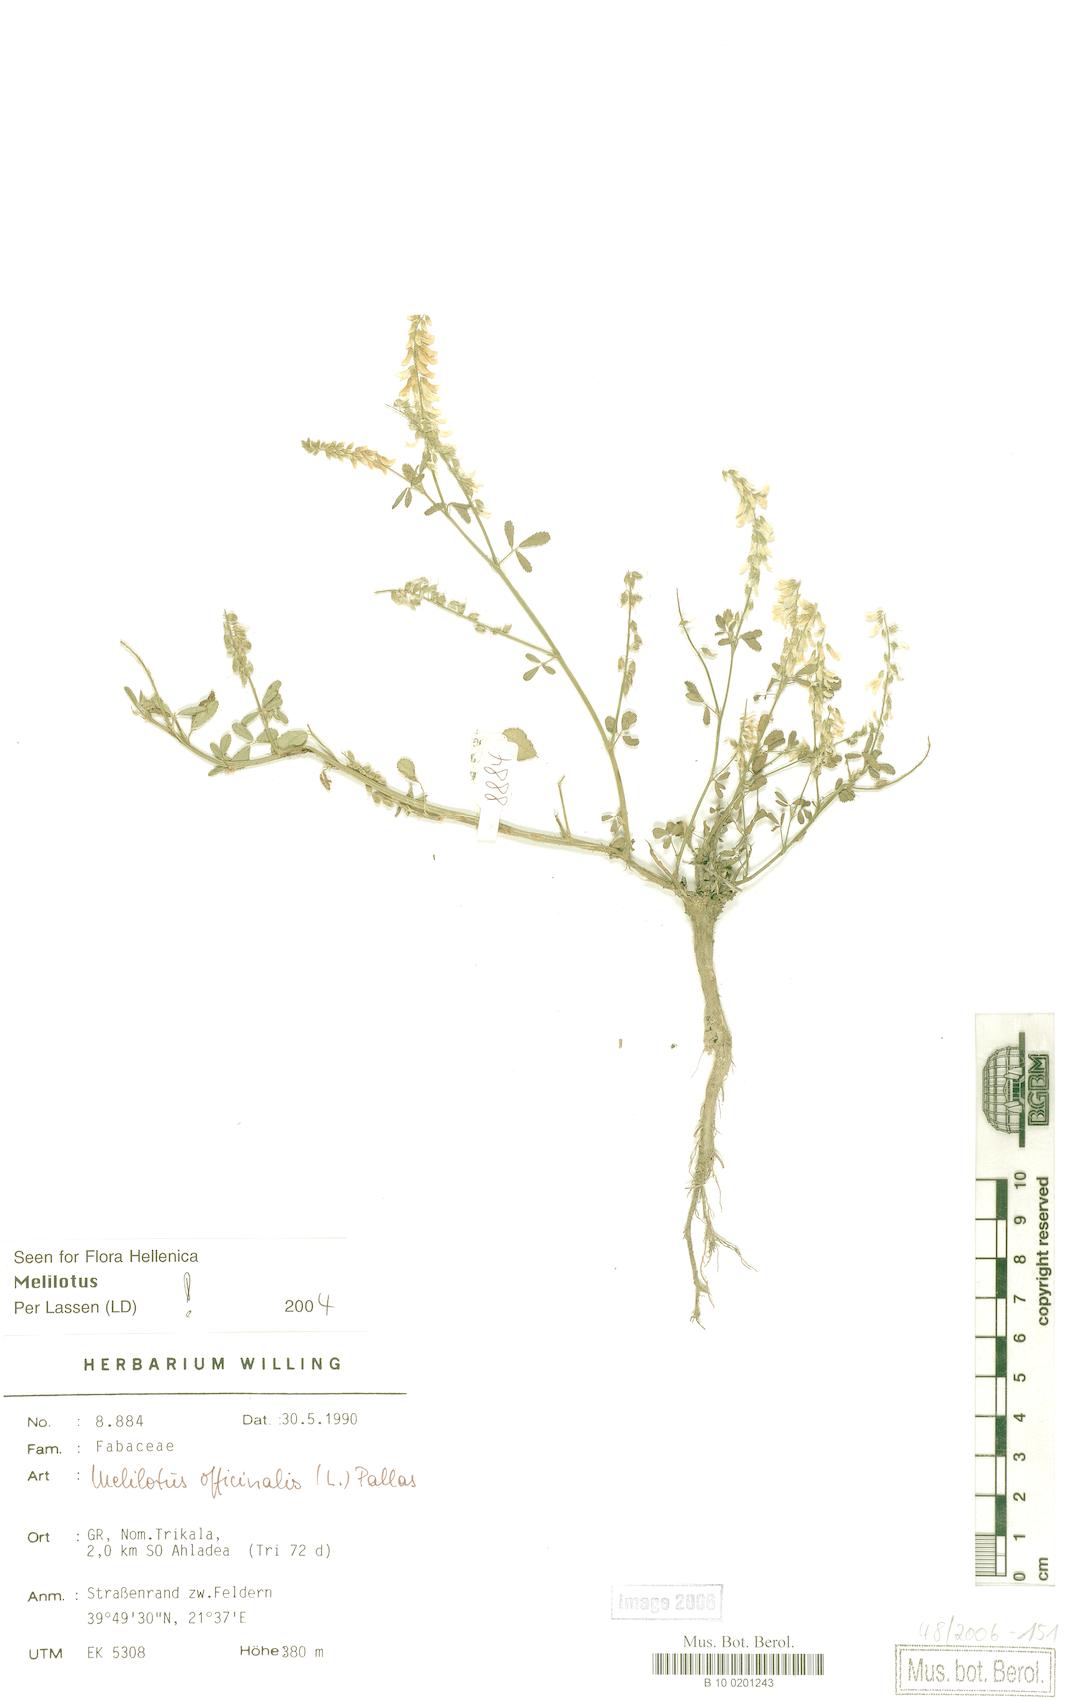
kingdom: Plantae
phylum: Tracheophyta
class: Magnoliopsida
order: Fabales
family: Fabaceae
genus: Melilotus
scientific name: Melilotus officinalis
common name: Sweetclover
